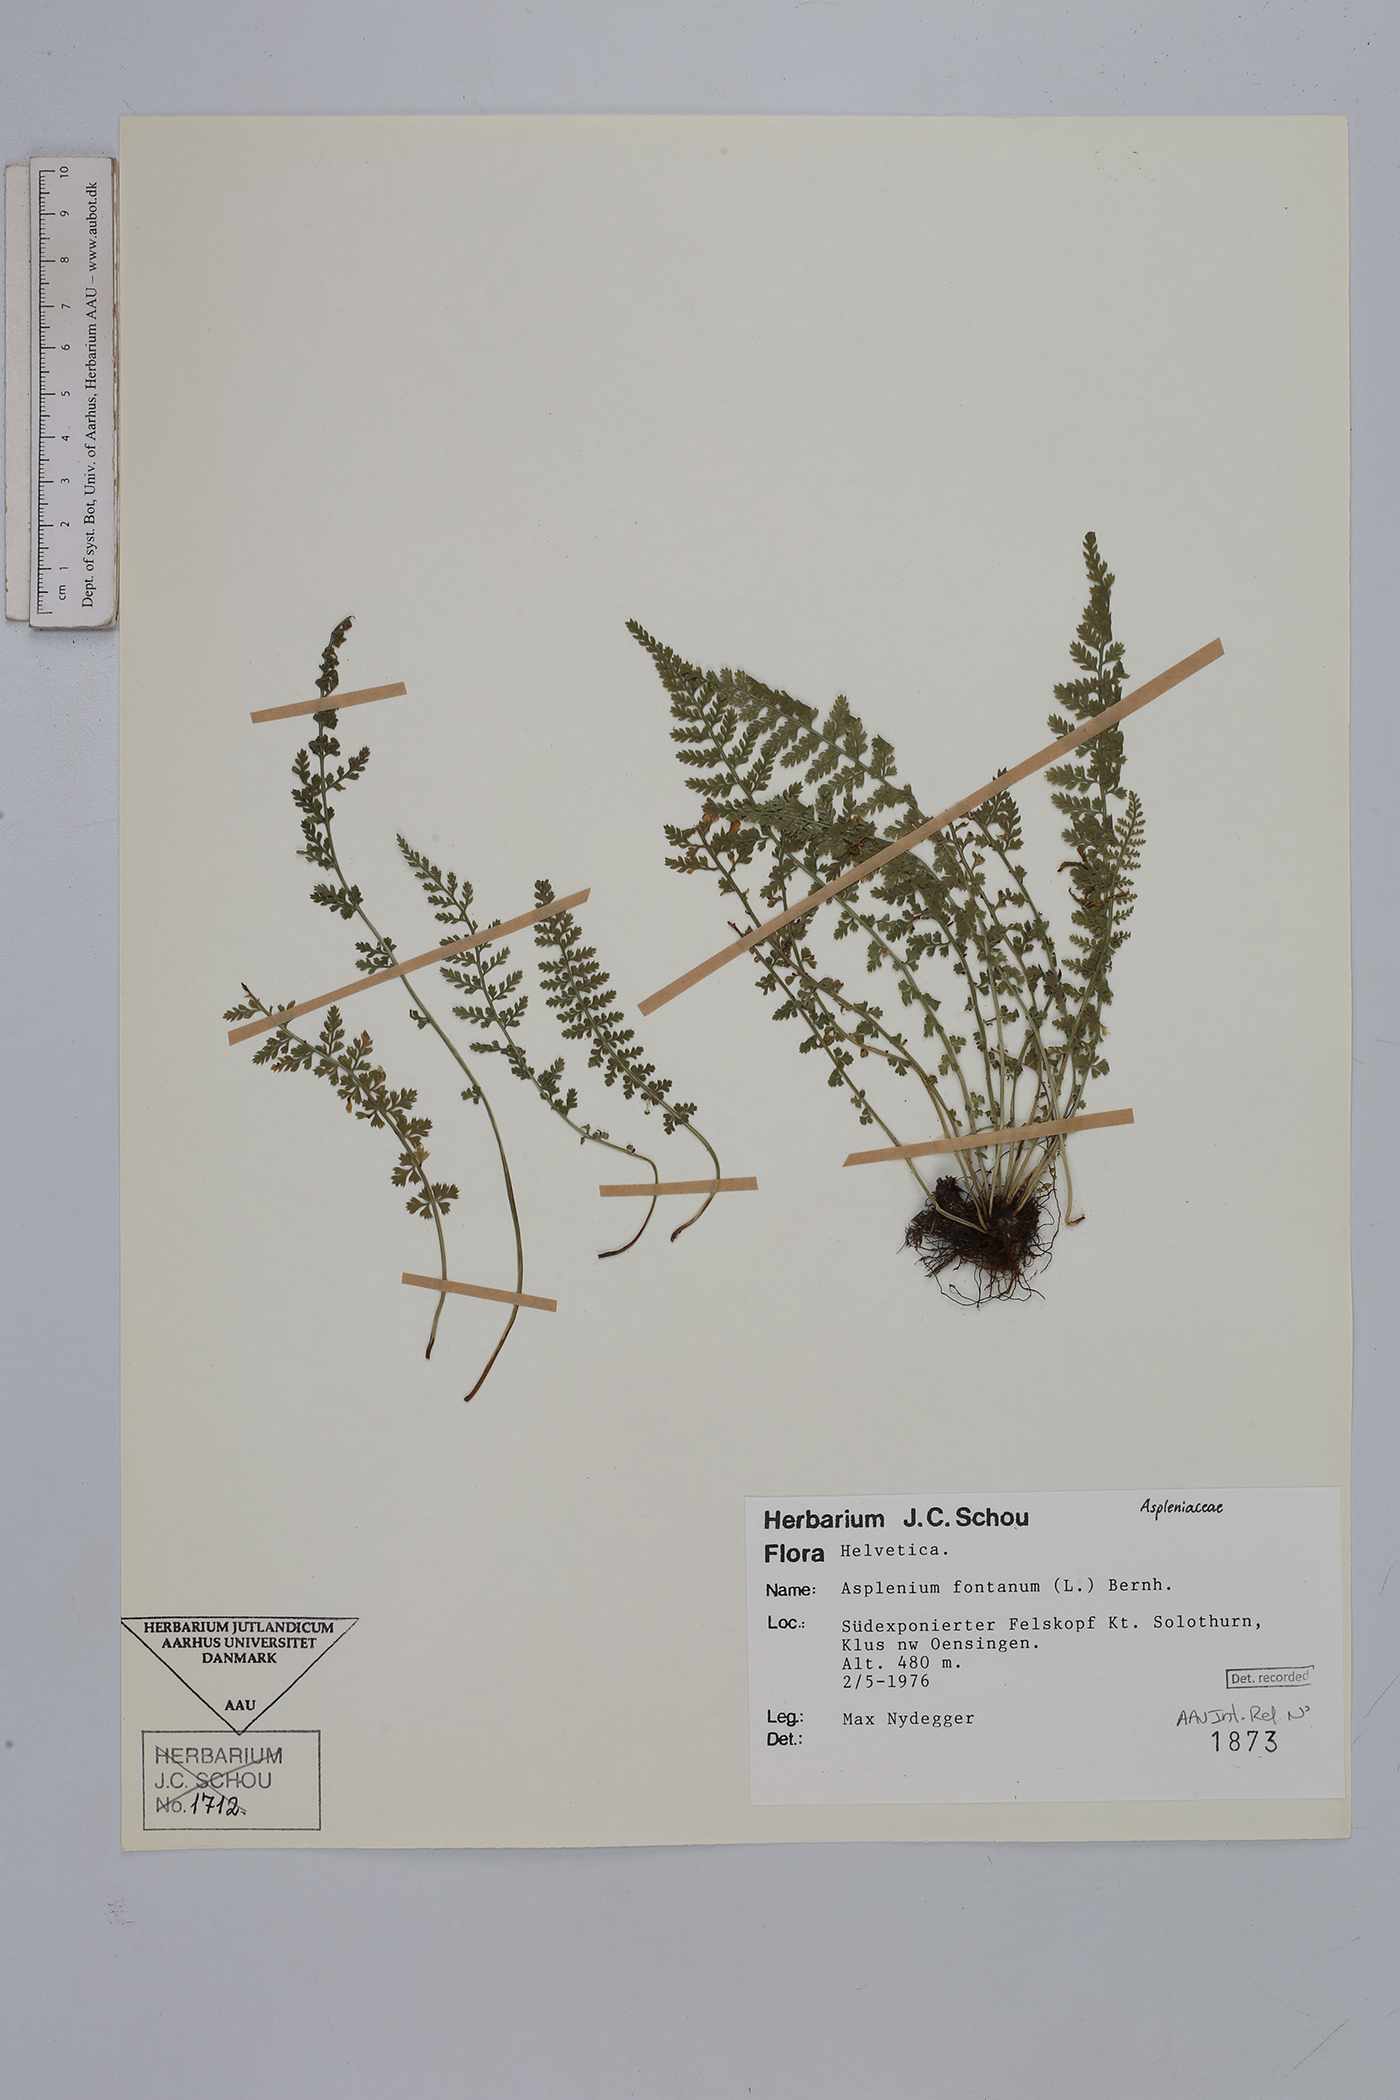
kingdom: Plantae
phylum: Tracheophyta
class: Polypodiopsida
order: Polypodiales
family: Aspleniaceae
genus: Asplenium
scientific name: Asplenium fontanum
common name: Fountain spleenwort
